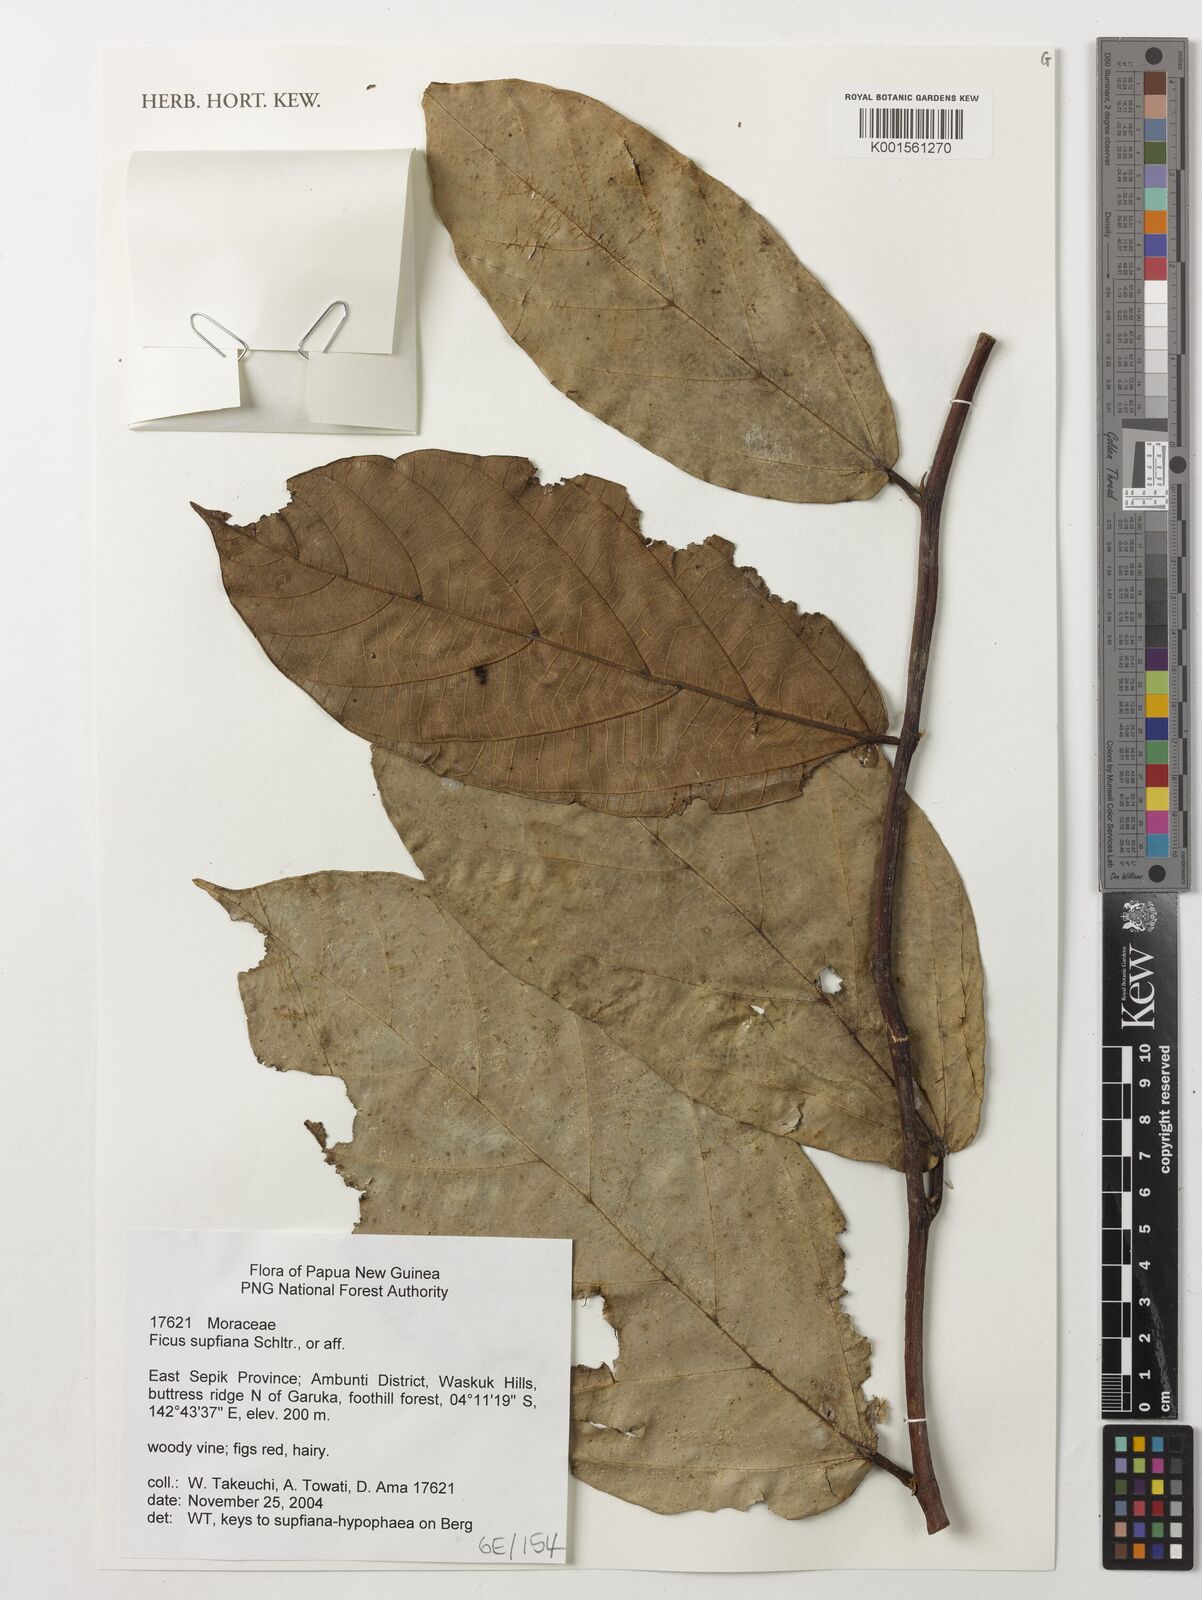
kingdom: Plantae
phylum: Tracheophyta
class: Magnoliopsida
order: Rosales
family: Moraceae
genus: Ficus
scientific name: Ficus supfiana
